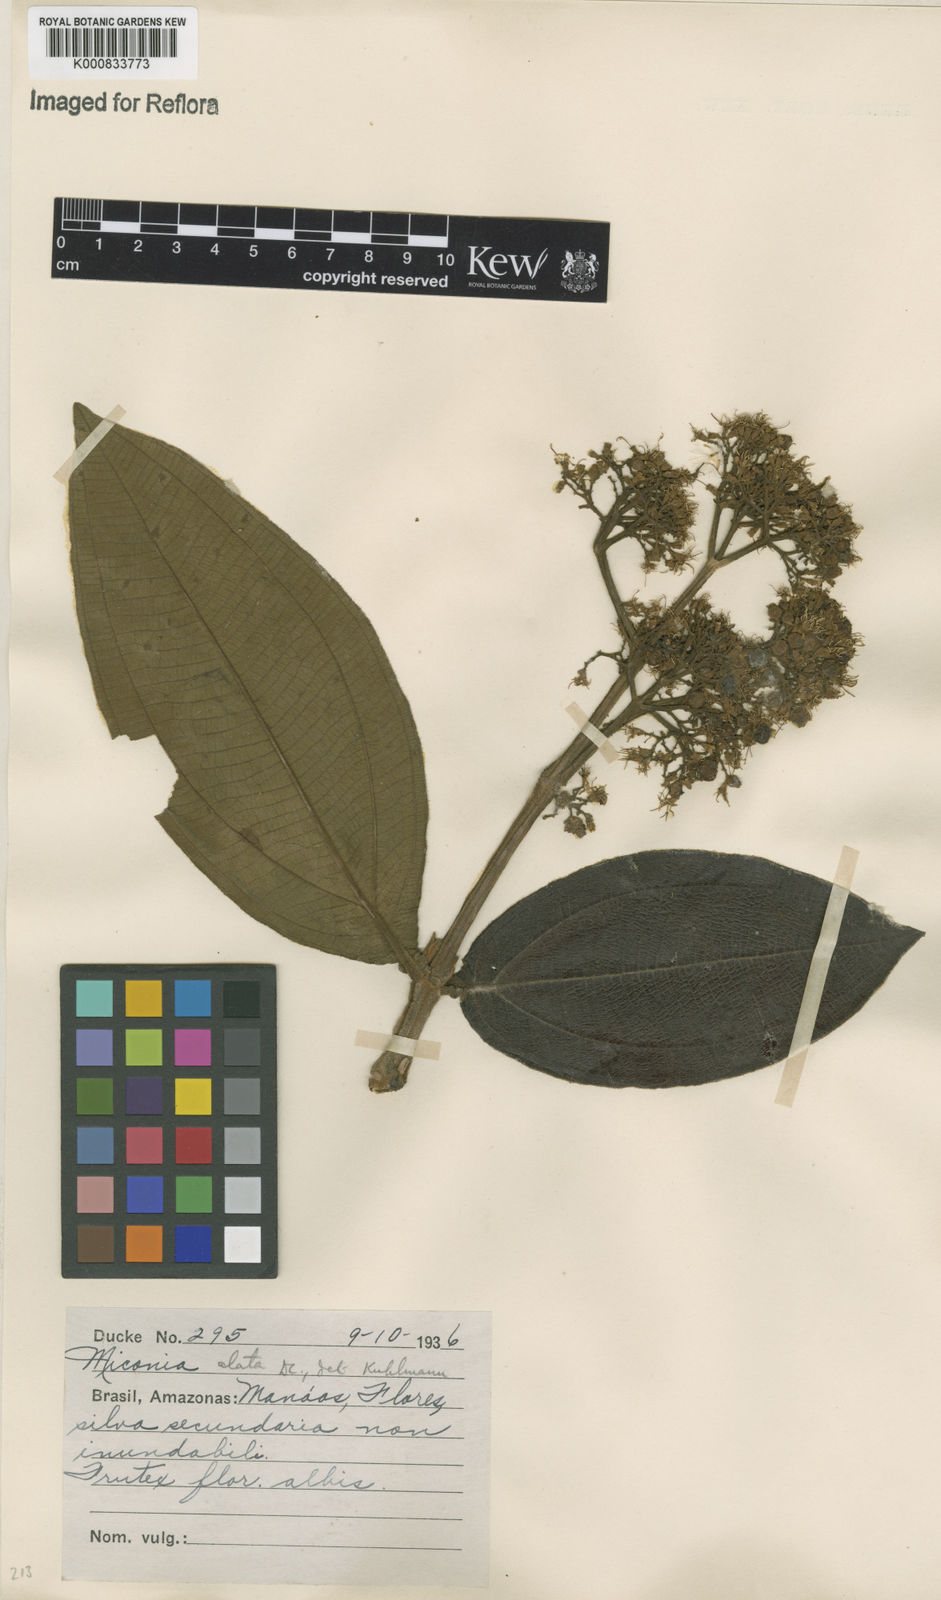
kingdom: Plantae
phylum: Tracheophyta
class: Magnoliopsida
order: Myrtales
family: Melastomataceae
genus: Miconia
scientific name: Miconia alata
